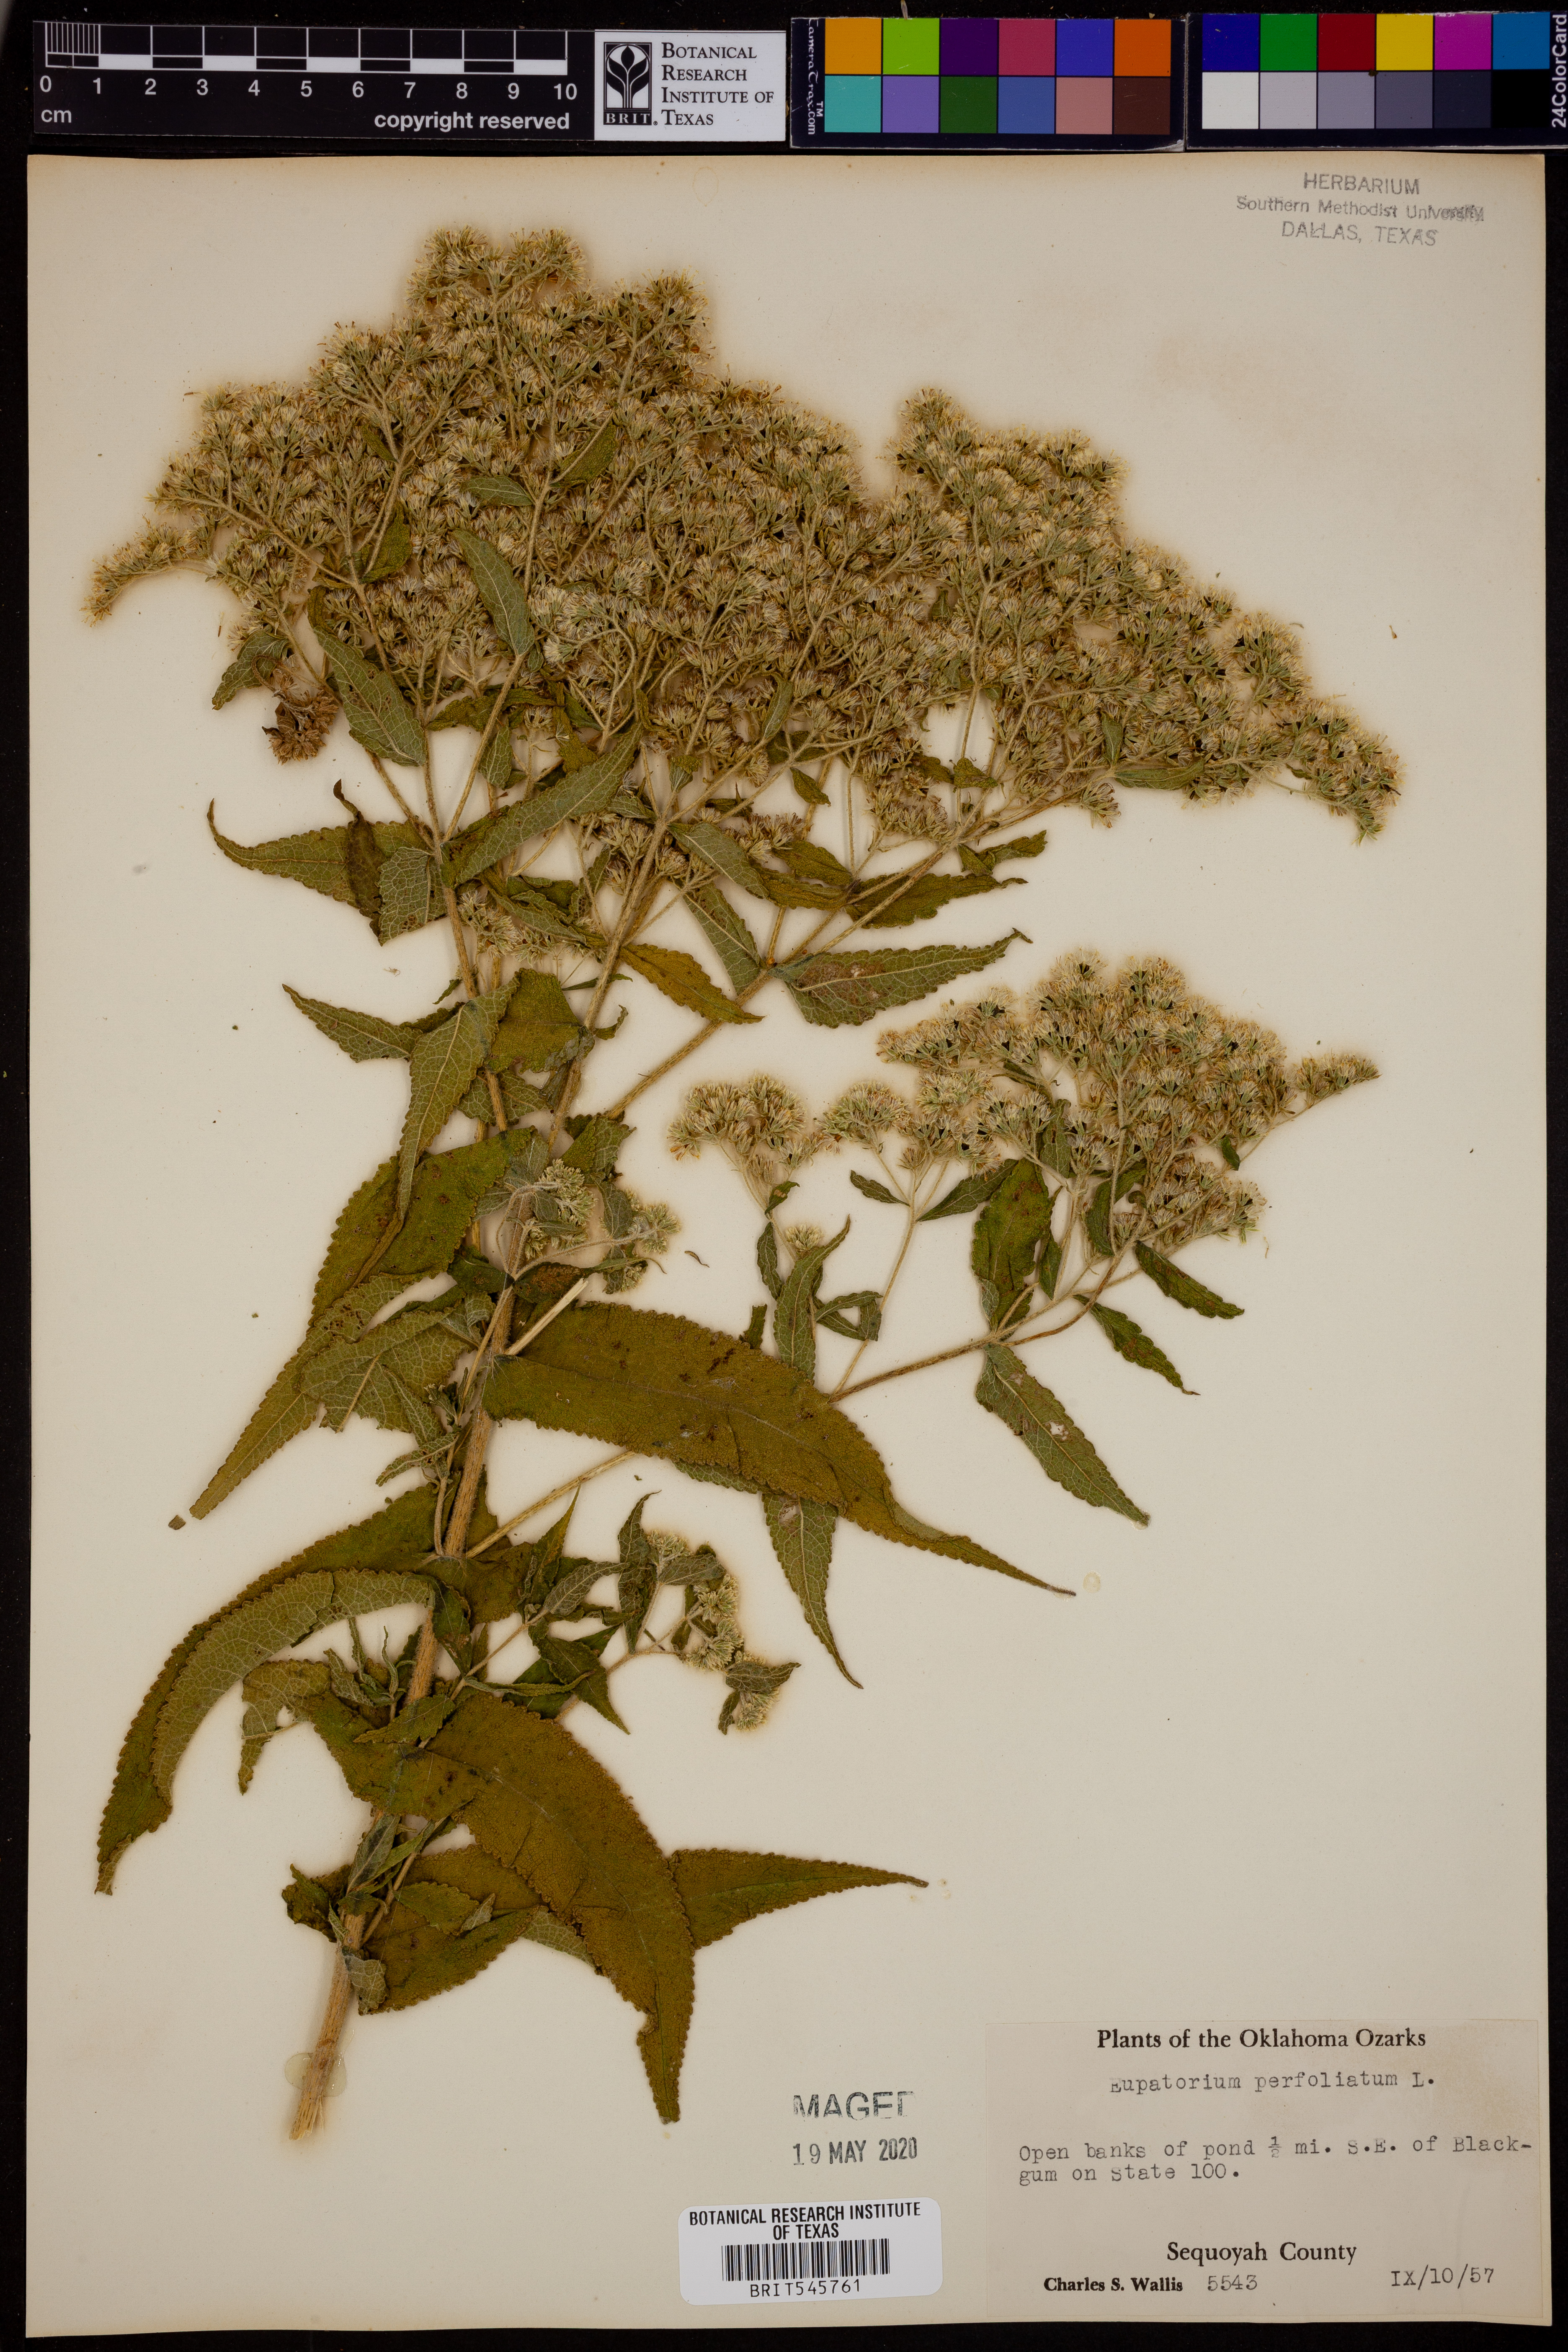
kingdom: Plantae
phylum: Tracheophyta
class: Magnoliopsida
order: Asterales
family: Asteraceae
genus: Eupatorium
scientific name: Eupatorium perfoliatum
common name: Boneset
